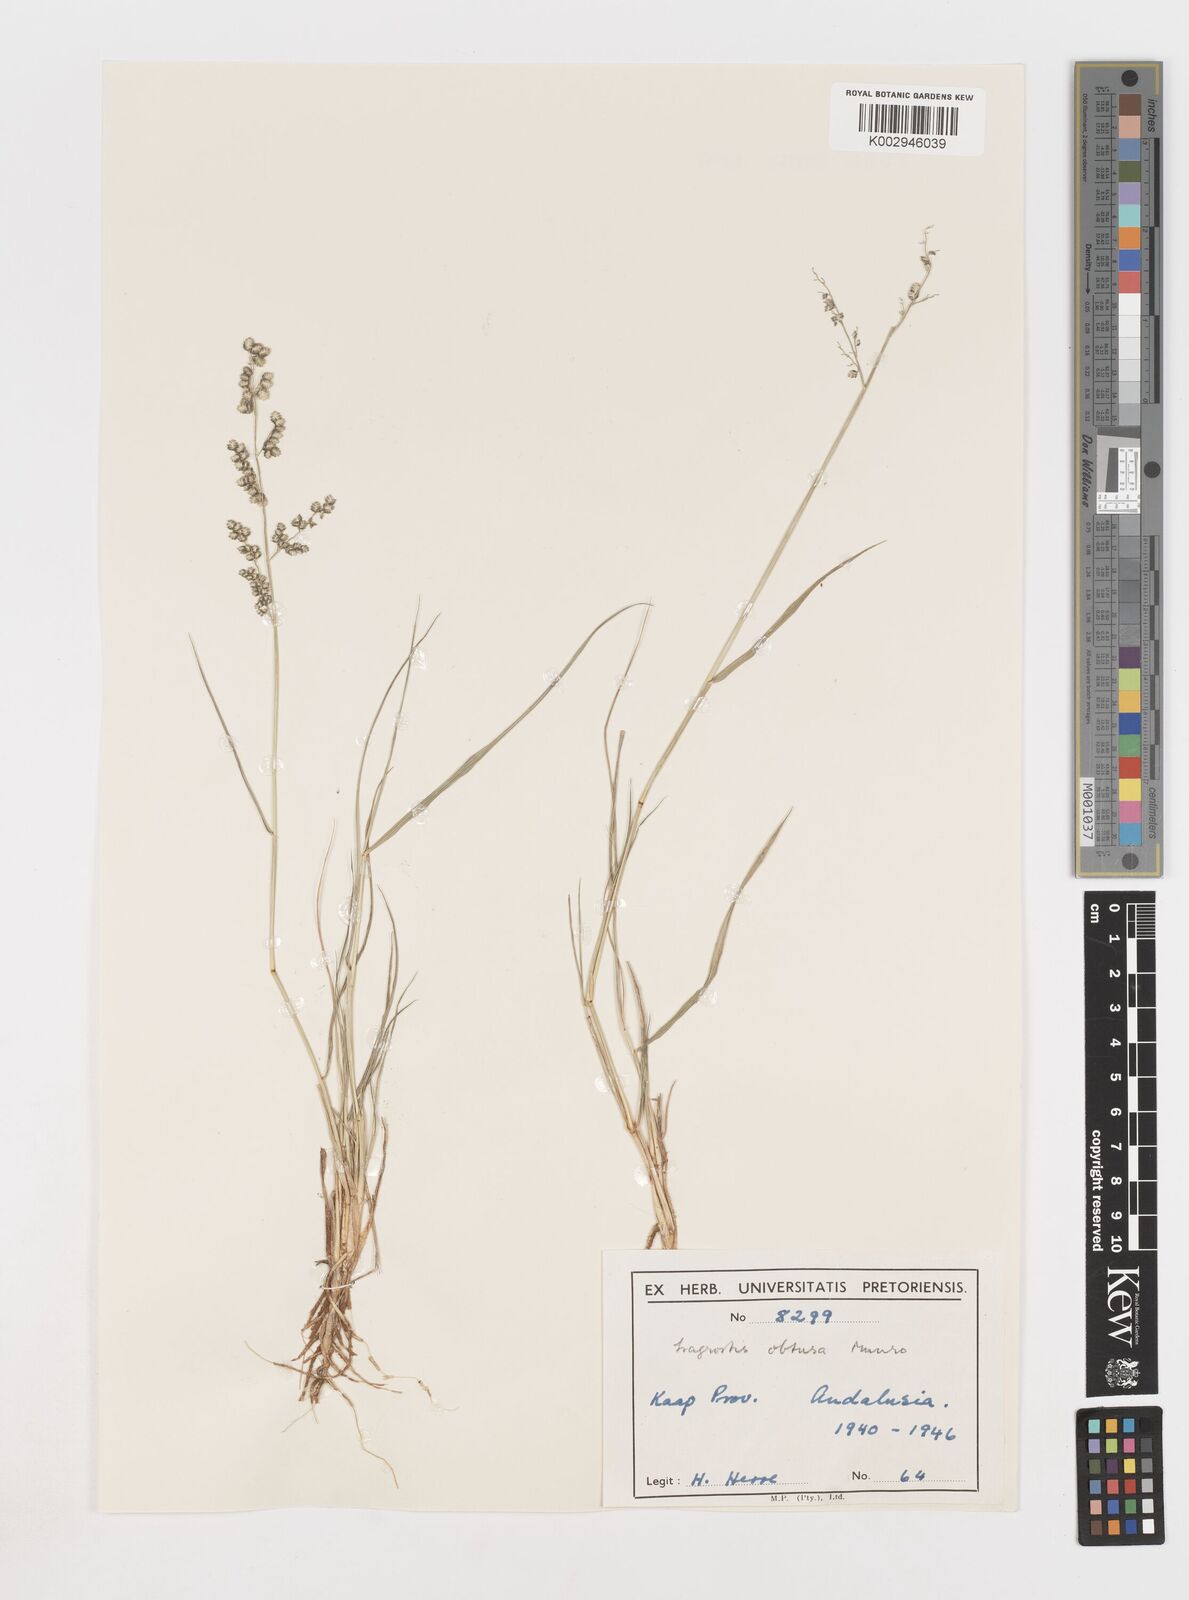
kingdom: Plantae
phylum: Tracheophyta
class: Liliopsida
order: Poales
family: Poaceae
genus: Eragrostis
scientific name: Eragrostis obtusa
